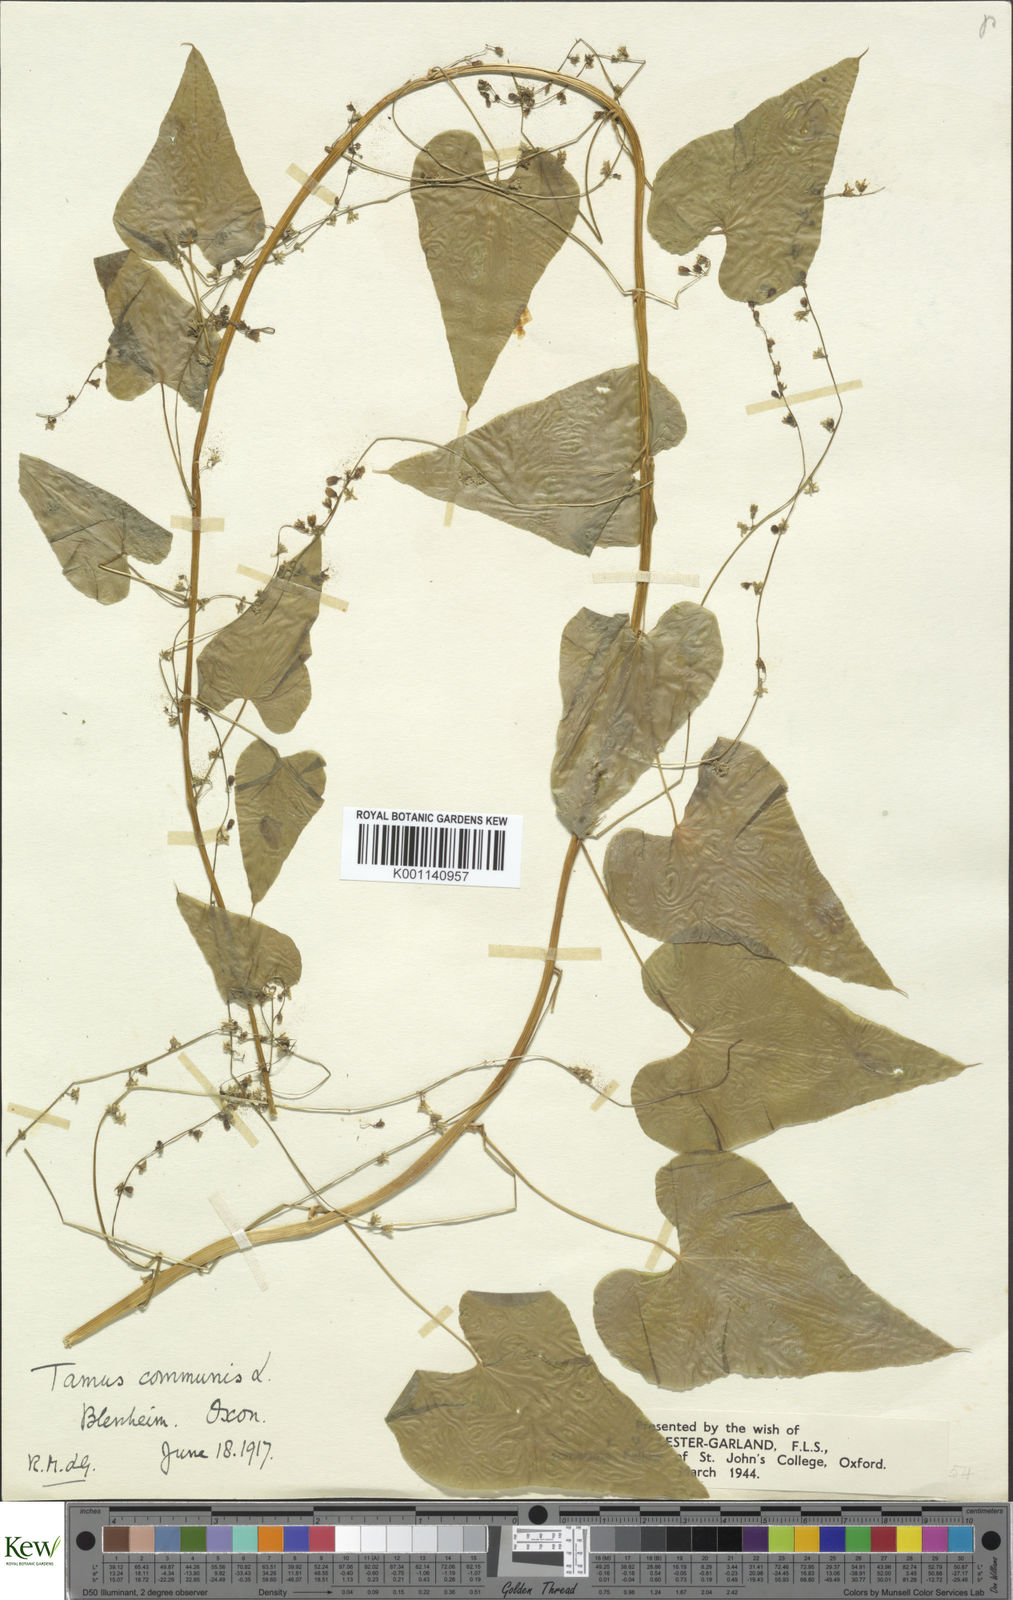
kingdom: Plantae
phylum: Tracheophyta
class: Liliopsida
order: Dioscoreales
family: Dioscoreaceae
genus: Dioscorea
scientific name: Dioscorea communis
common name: Black-bindweed
